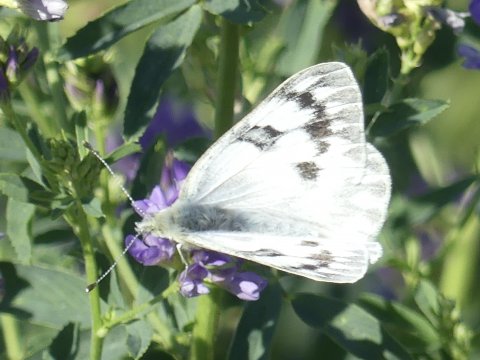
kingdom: Animalia
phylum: Arthropoda
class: Insecta
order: Lepidoptera
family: Pieridae
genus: Pontia
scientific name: Pontia occidentalis
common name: Western White
